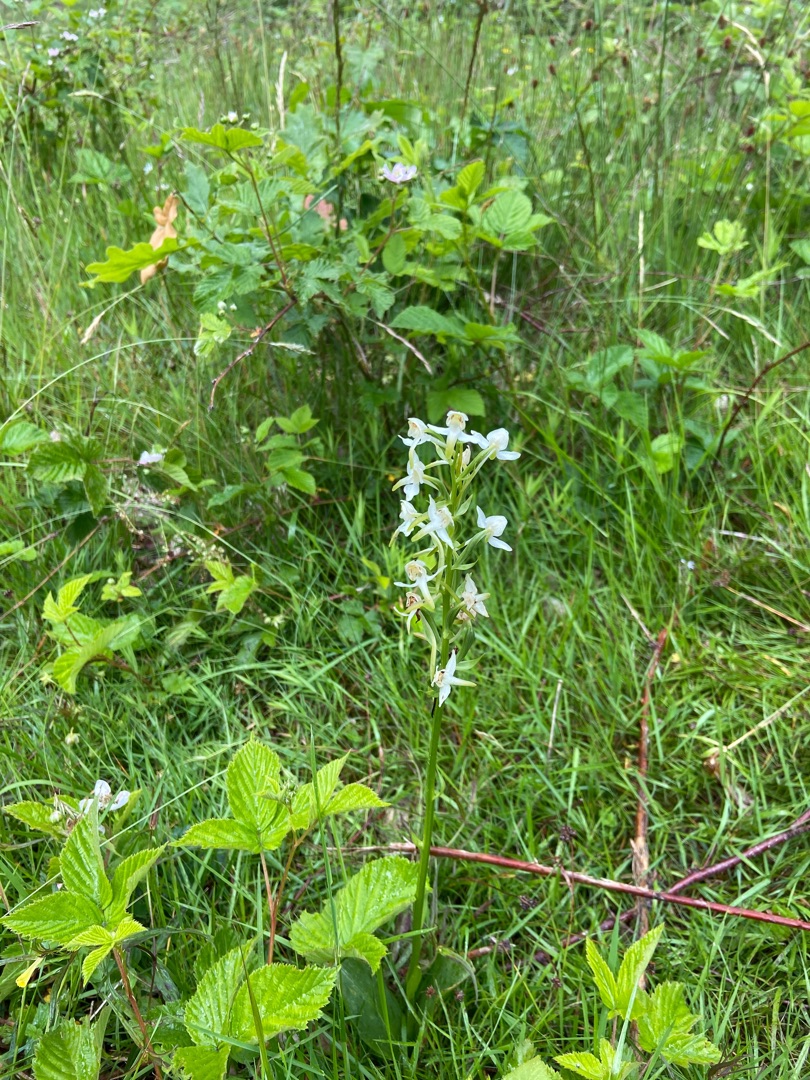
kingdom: Plantae
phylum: Tracheophyta
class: Liliopsida
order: Asparagales
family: Orchidaceae
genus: Platanthera
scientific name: Platanthera chlorantha
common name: Skov-gøgelilje
